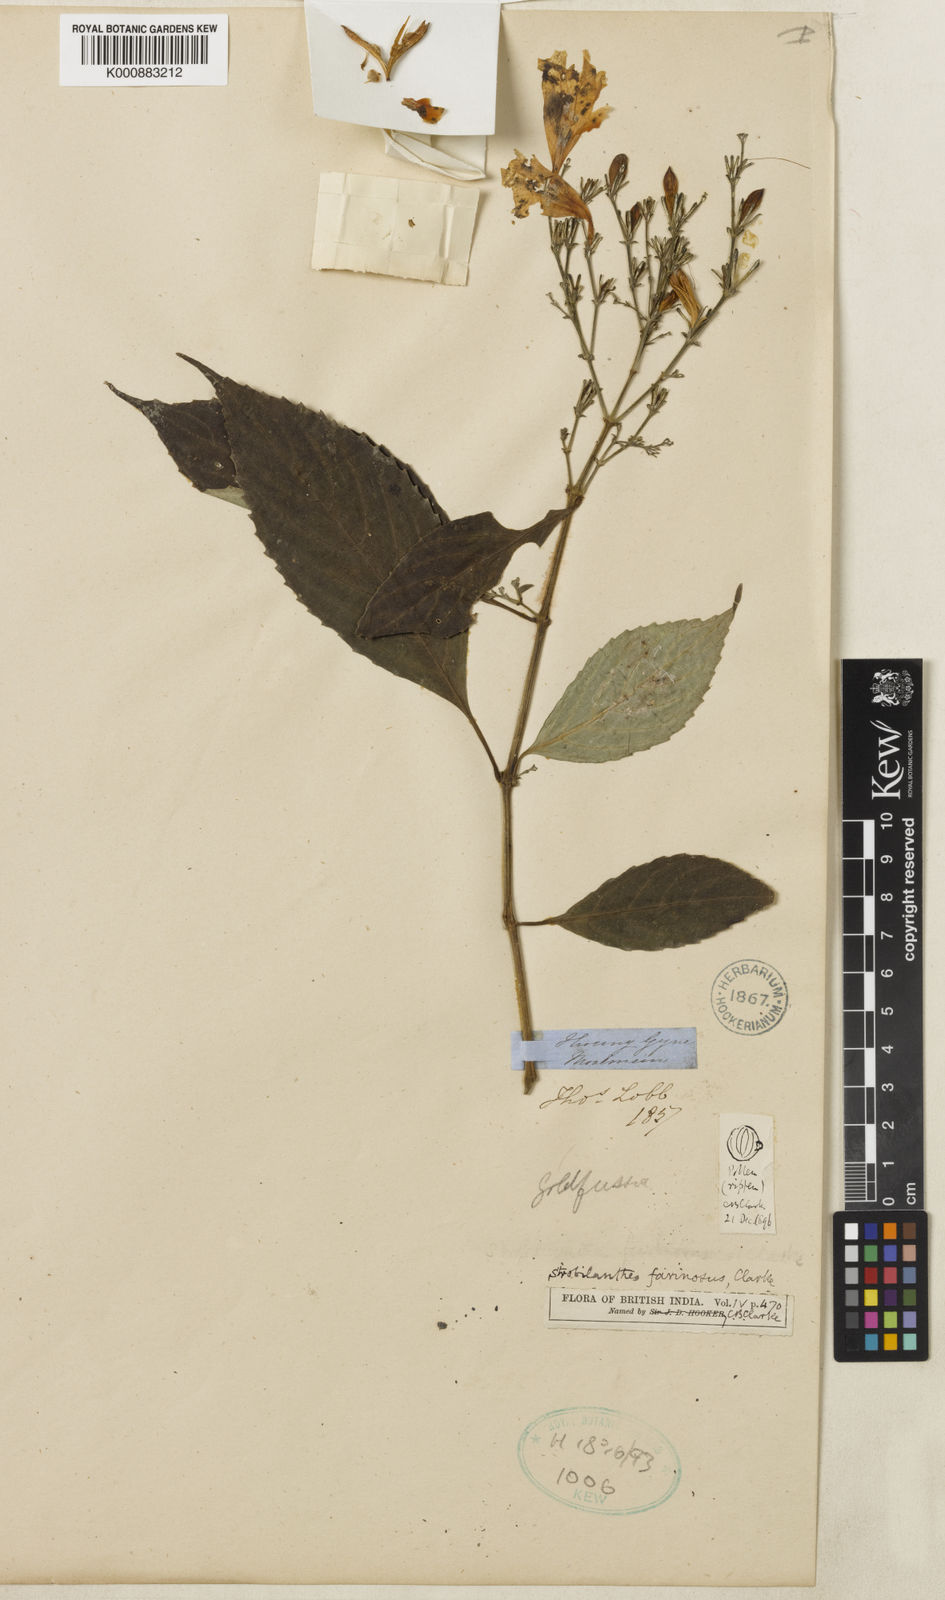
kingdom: Plantae
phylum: Tracheophyta
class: Magnoliopsida
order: Lamiales
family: Acanthaceae
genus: Strobilanthes
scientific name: Strobilanthes farinosa
